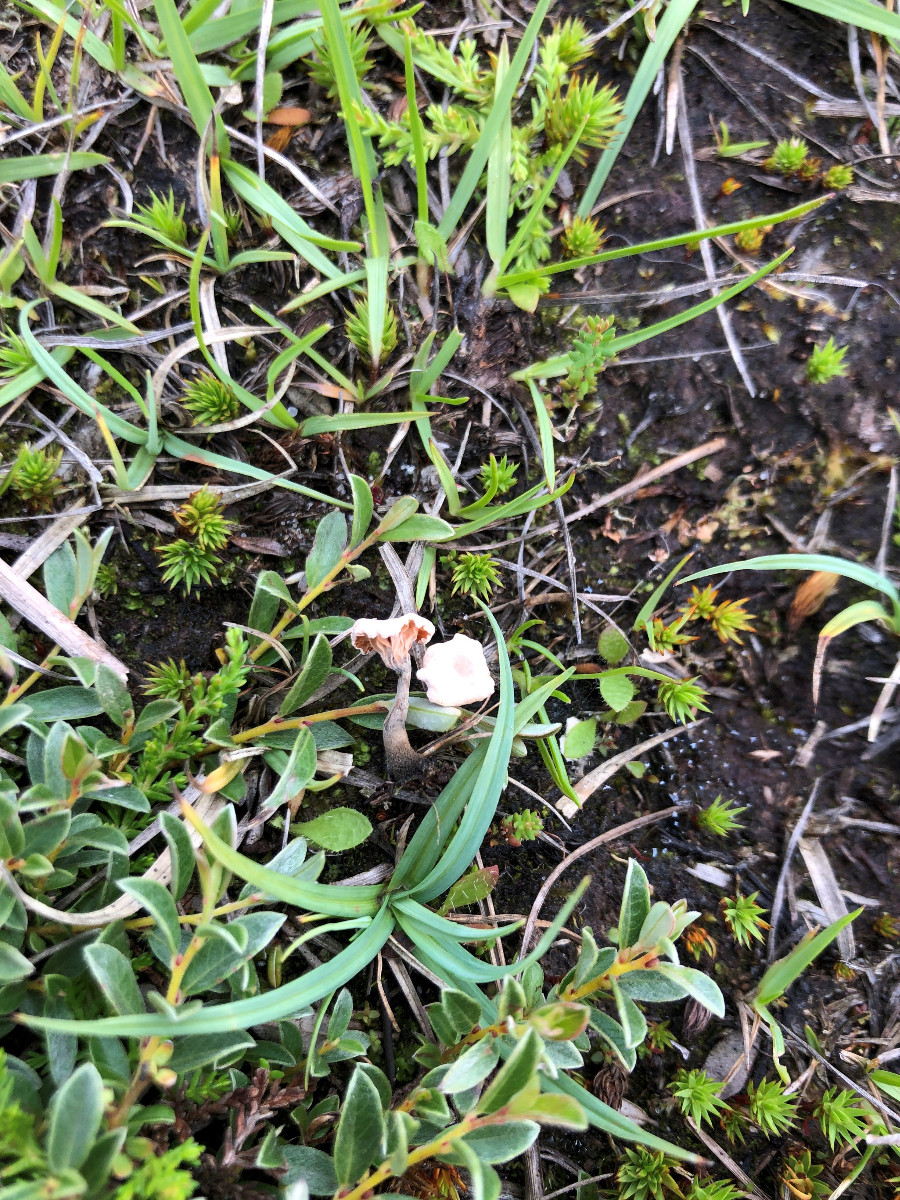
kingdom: Fungi
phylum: Basidiomycota
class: Agaricomycetes
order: Agaricales
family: Omphalotaceae
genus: Marasmiellus
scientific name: Marasmiellus tricolor
